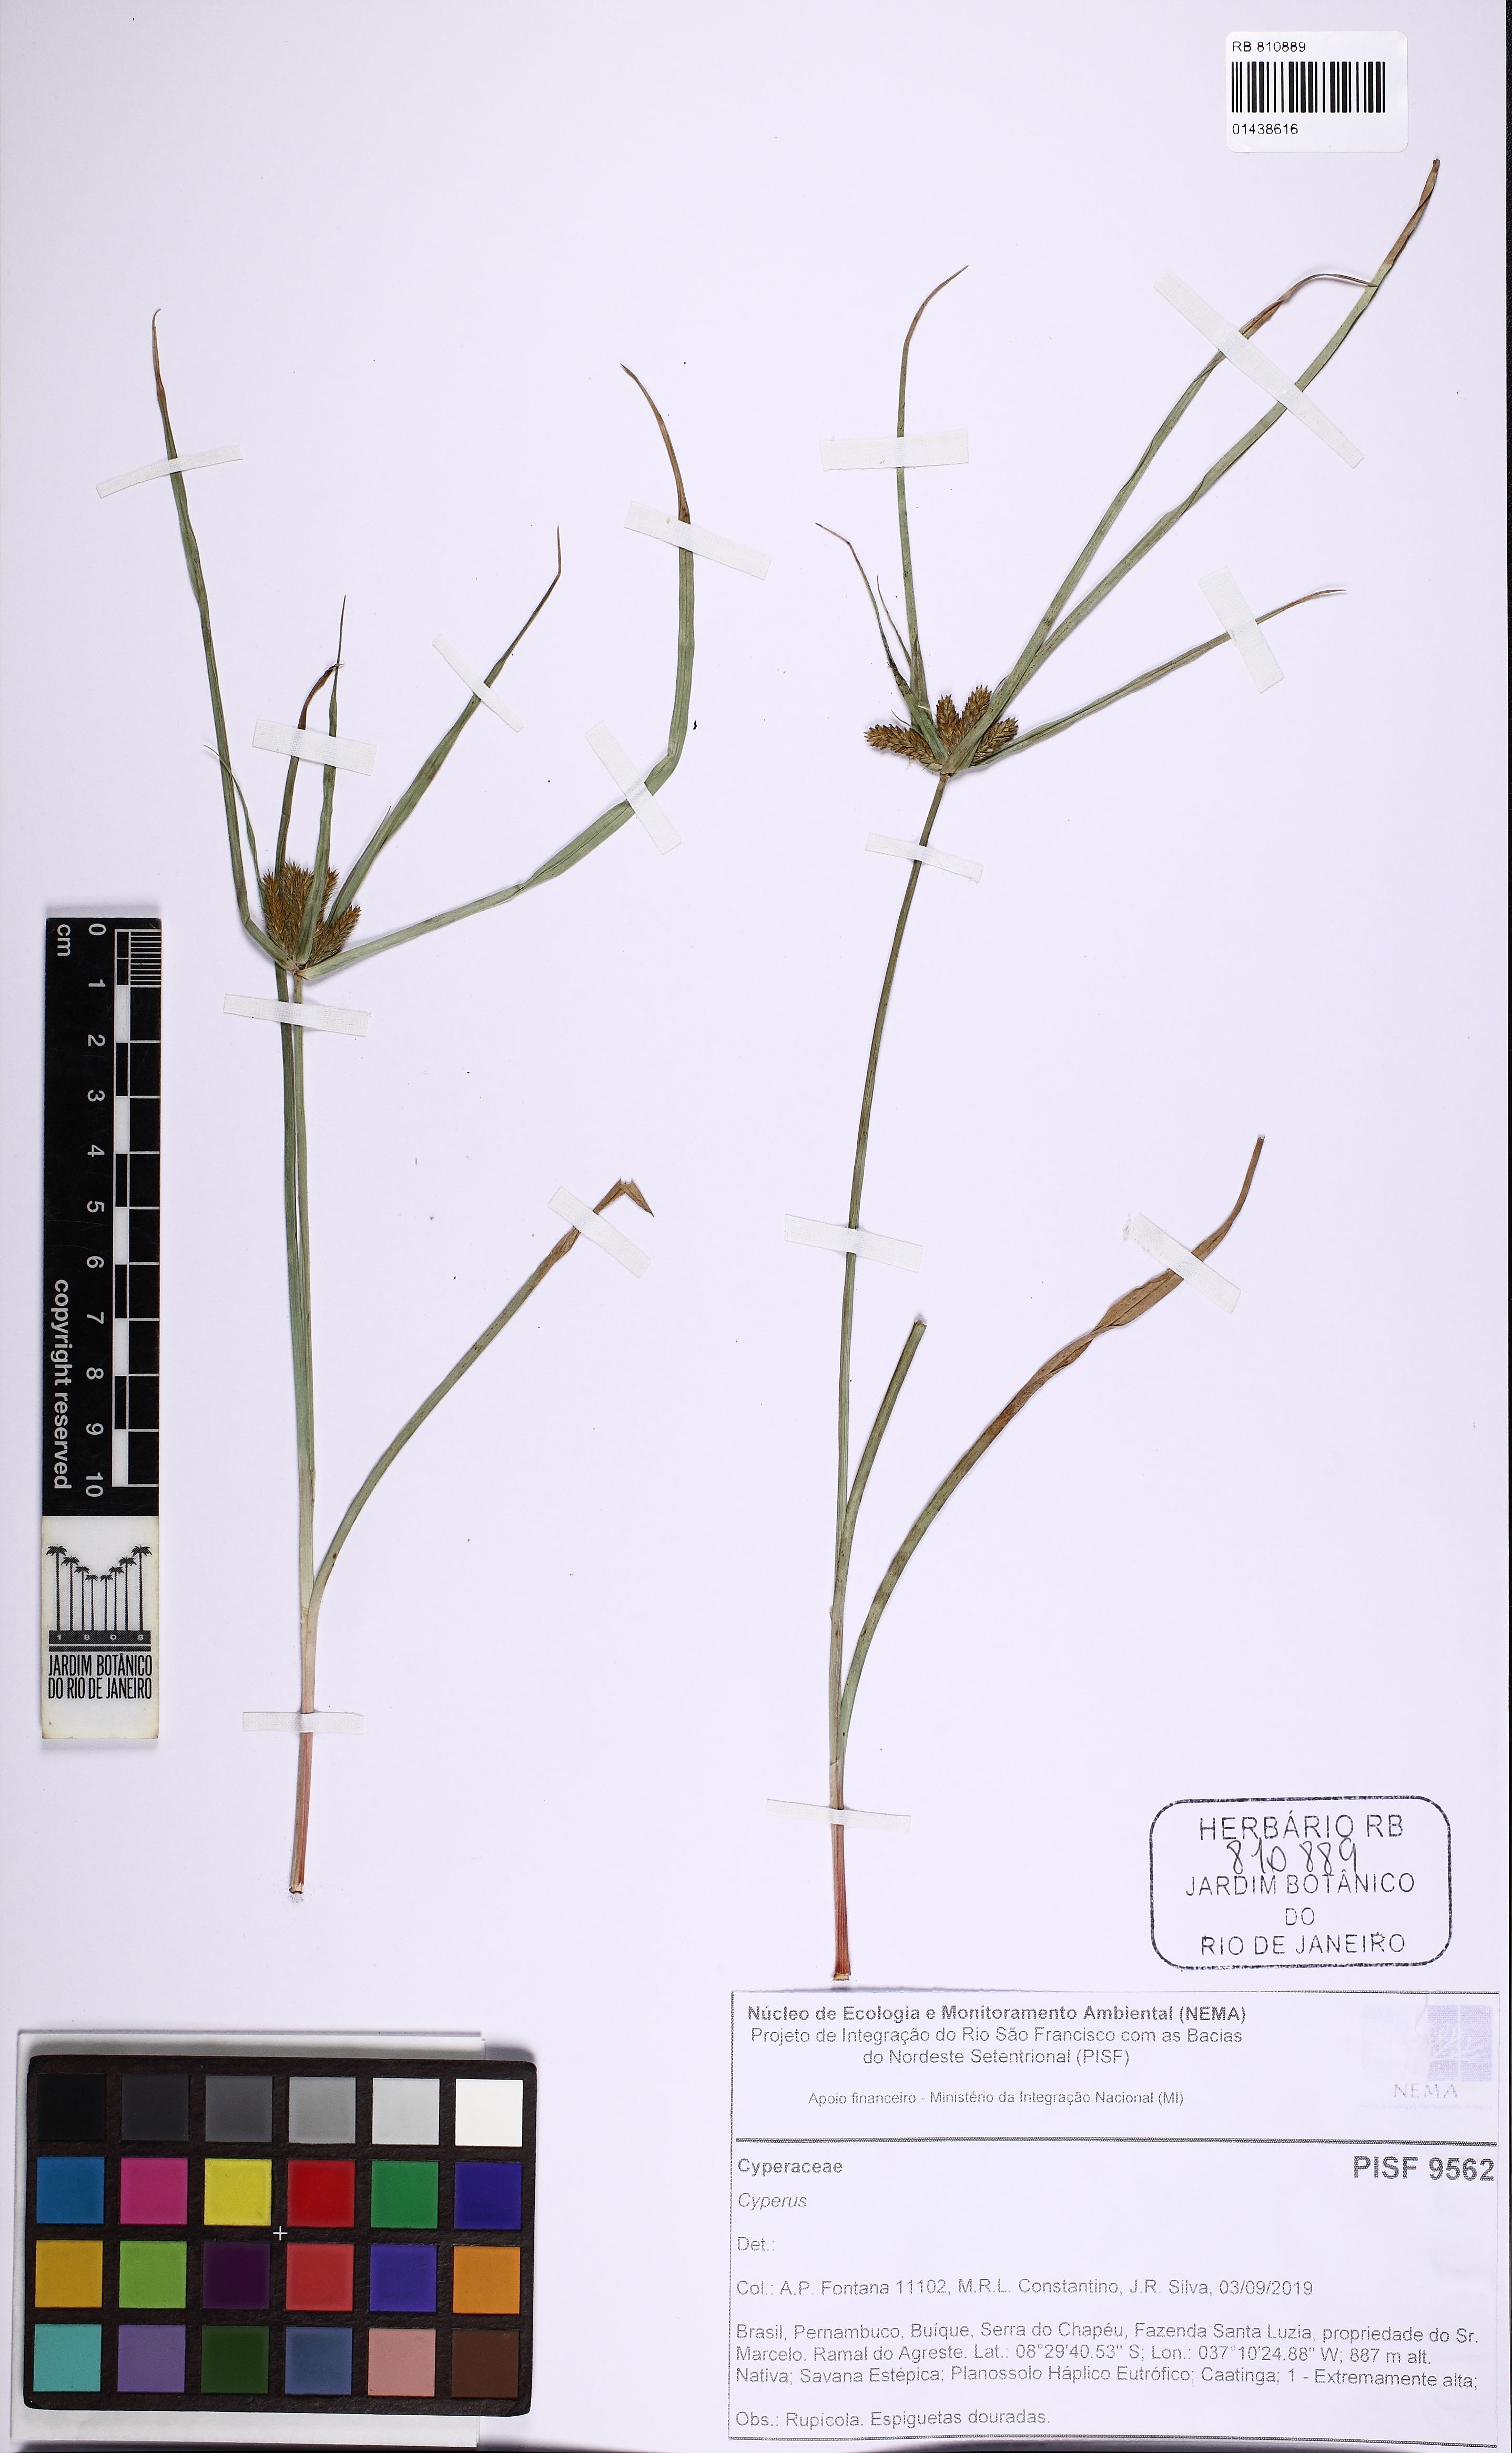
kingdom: Plantae
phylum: Tracheophyta
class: Liliopsida
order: Poales
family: Cyperaceae
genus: Cyperus
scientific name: Cyperus aggregatus
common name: Inflatedscale flatsedge
